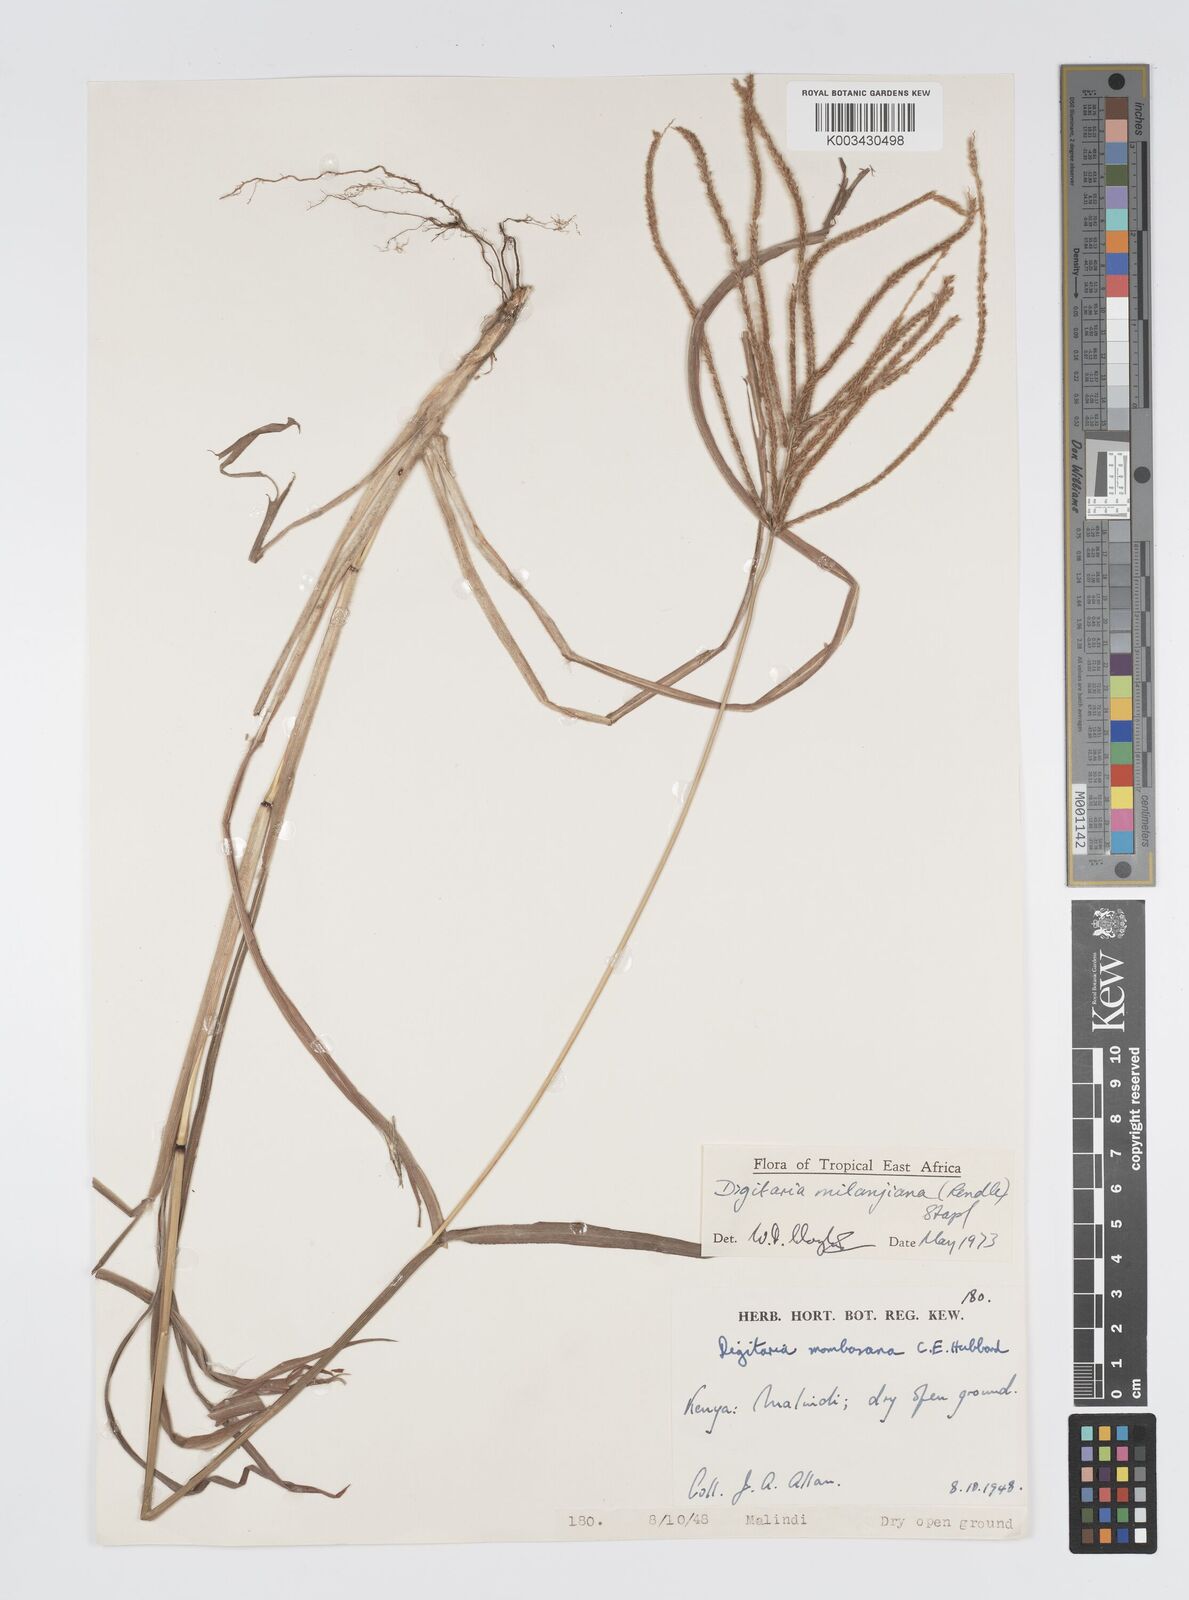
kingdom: Plantae
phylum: Tracheophyta
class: Liliopsida
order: Poales
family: Poaceae
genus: Digitaria
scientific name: Digitaria milanjiana
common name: Madagascar crabgrass
